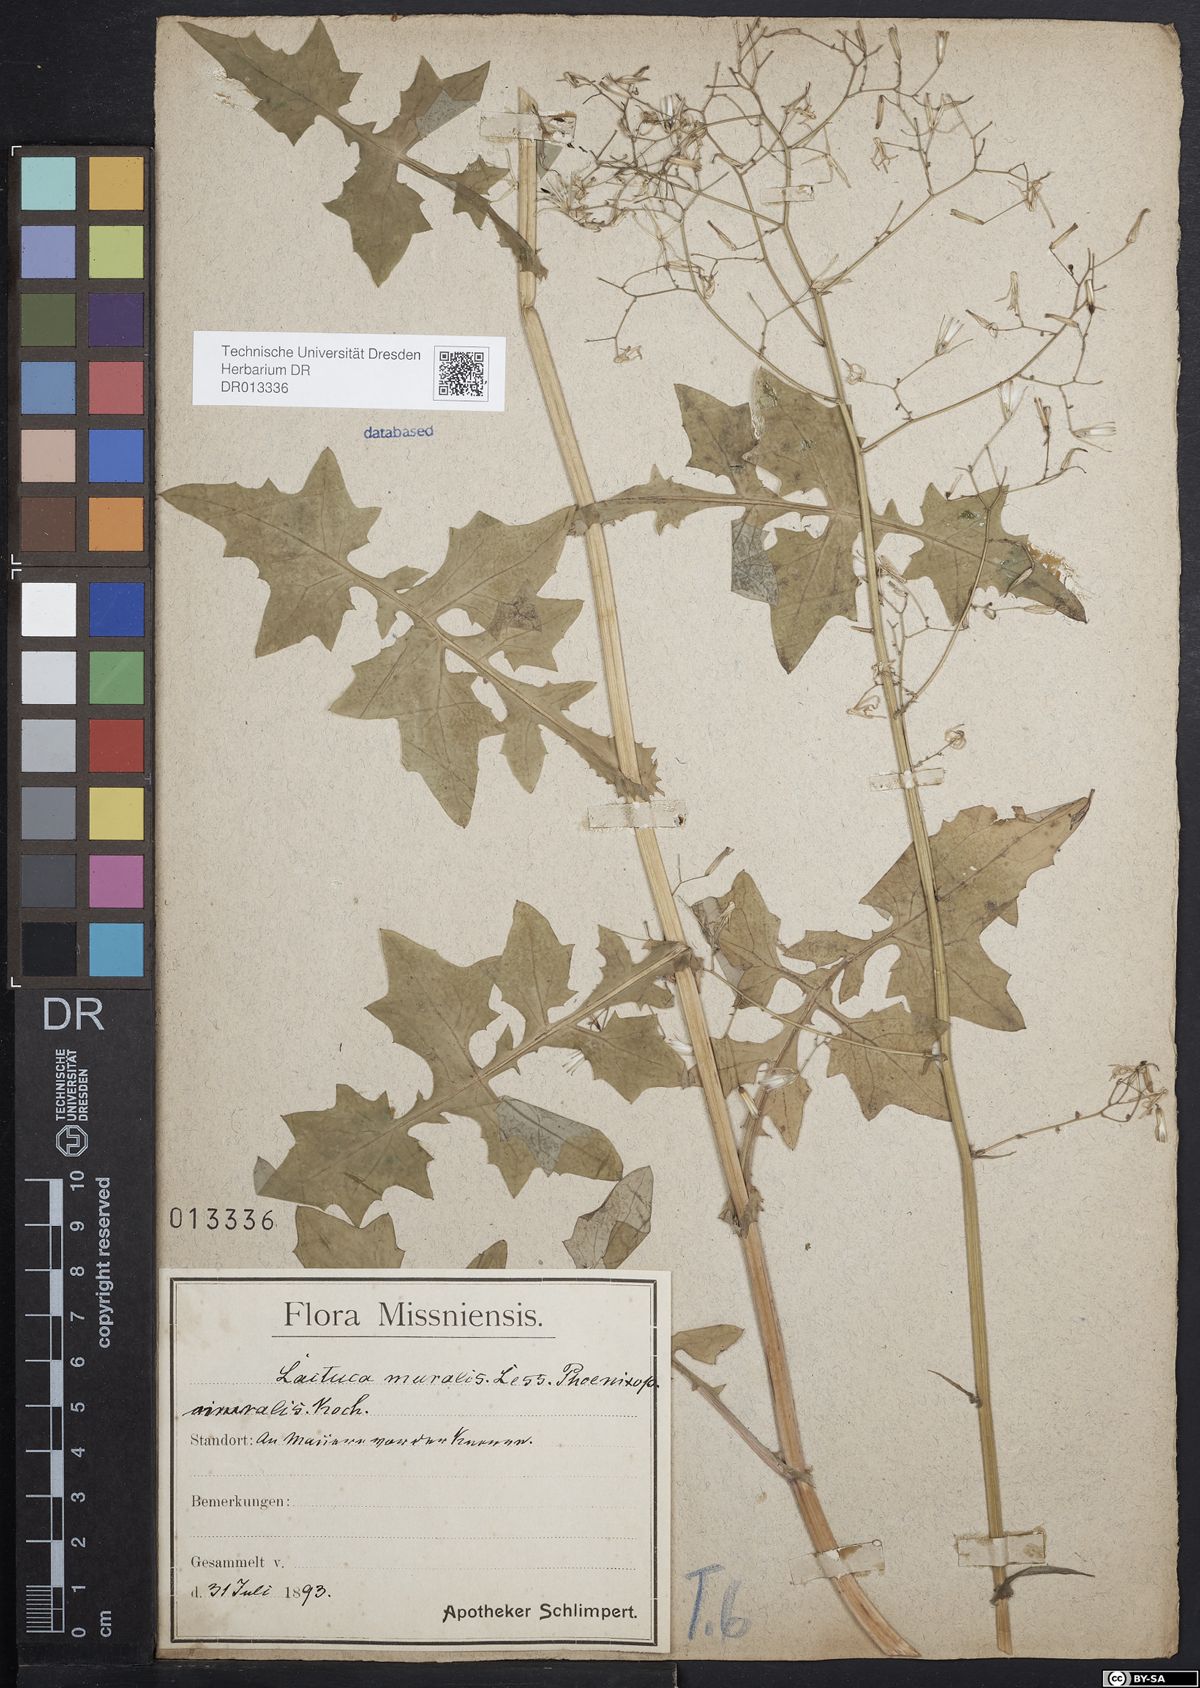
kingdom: Plantae
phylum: Tracheophyta
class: Magnoliopsida
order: Asterales
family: Asteraceae
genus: Mycelis
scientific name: Mycelis muralis
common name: Wall lettuce
